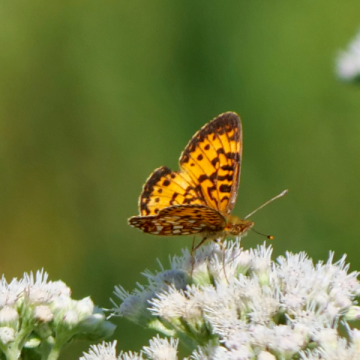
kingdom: Animalia
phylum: Arthropoda
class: Insecta
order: Lepidoptera
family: Nymphalidae
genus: Boloria
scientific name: Boloria selene
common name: Silver-bordered Fritillary
